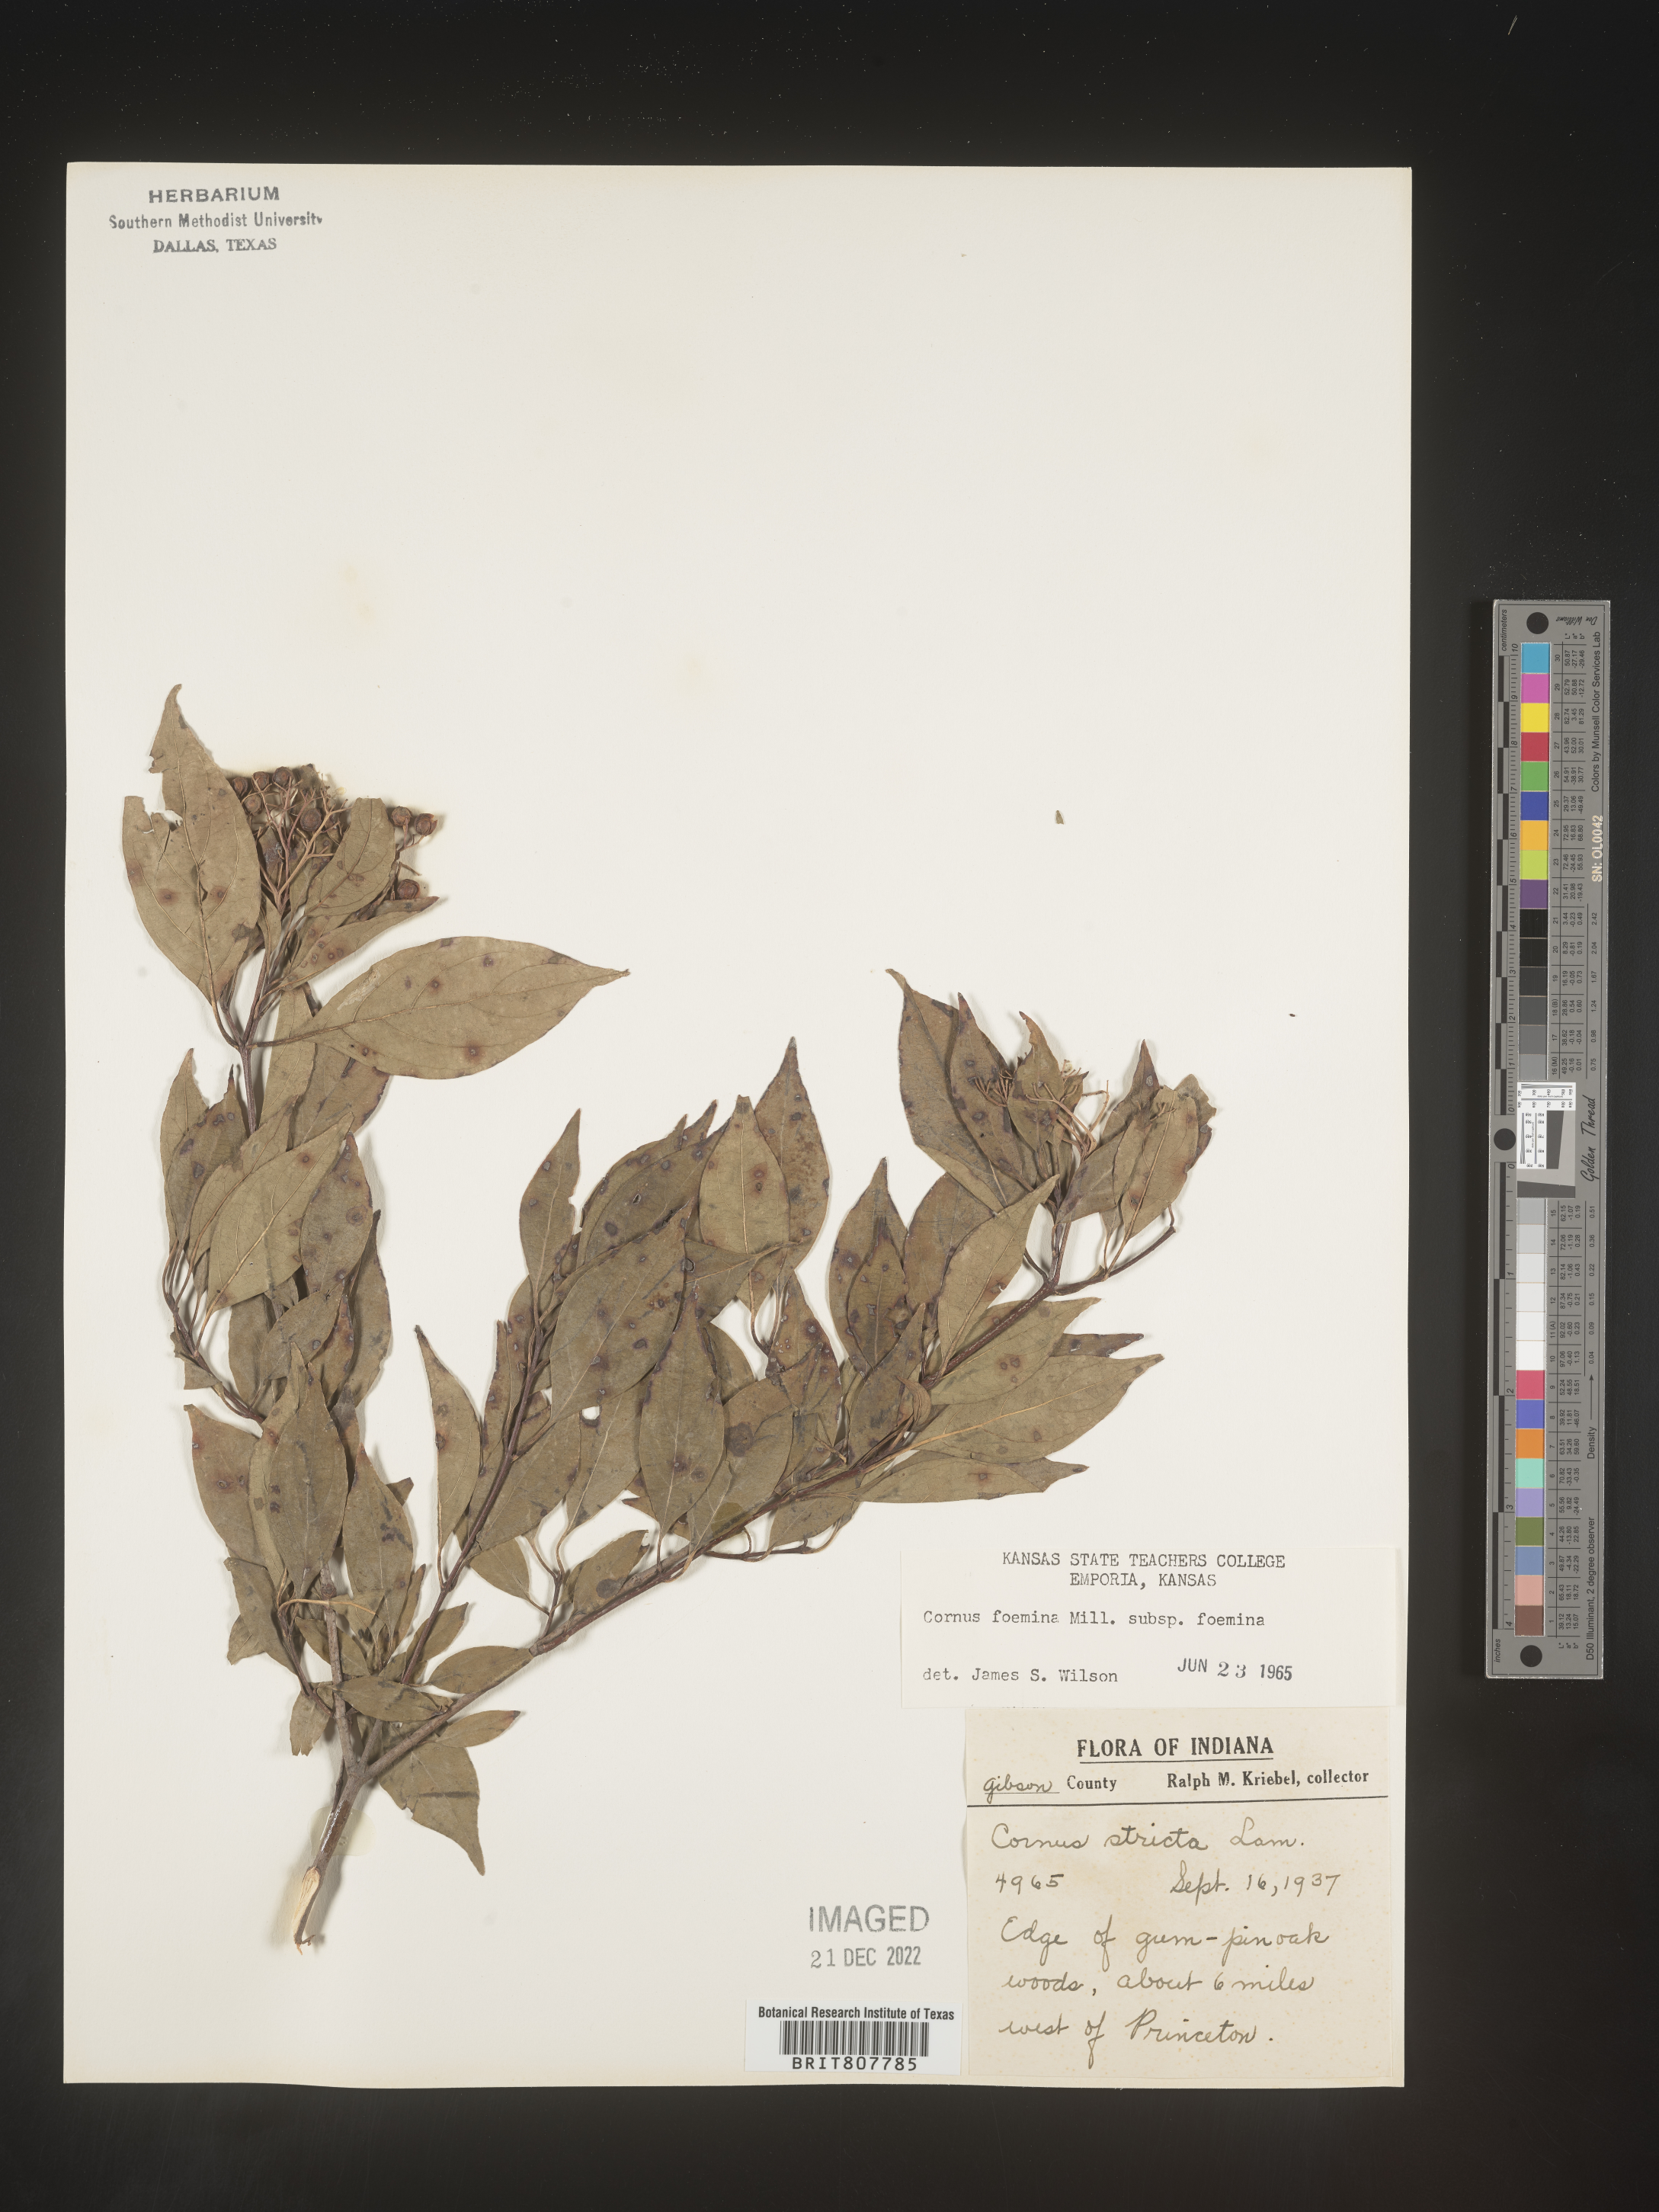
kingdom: Plantae
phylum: Tracheophyta
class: Magnoliopsida
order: Cornales
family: Cornaceae
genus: Cornus
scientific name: Cornus foemina
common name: Swamp dogwood
